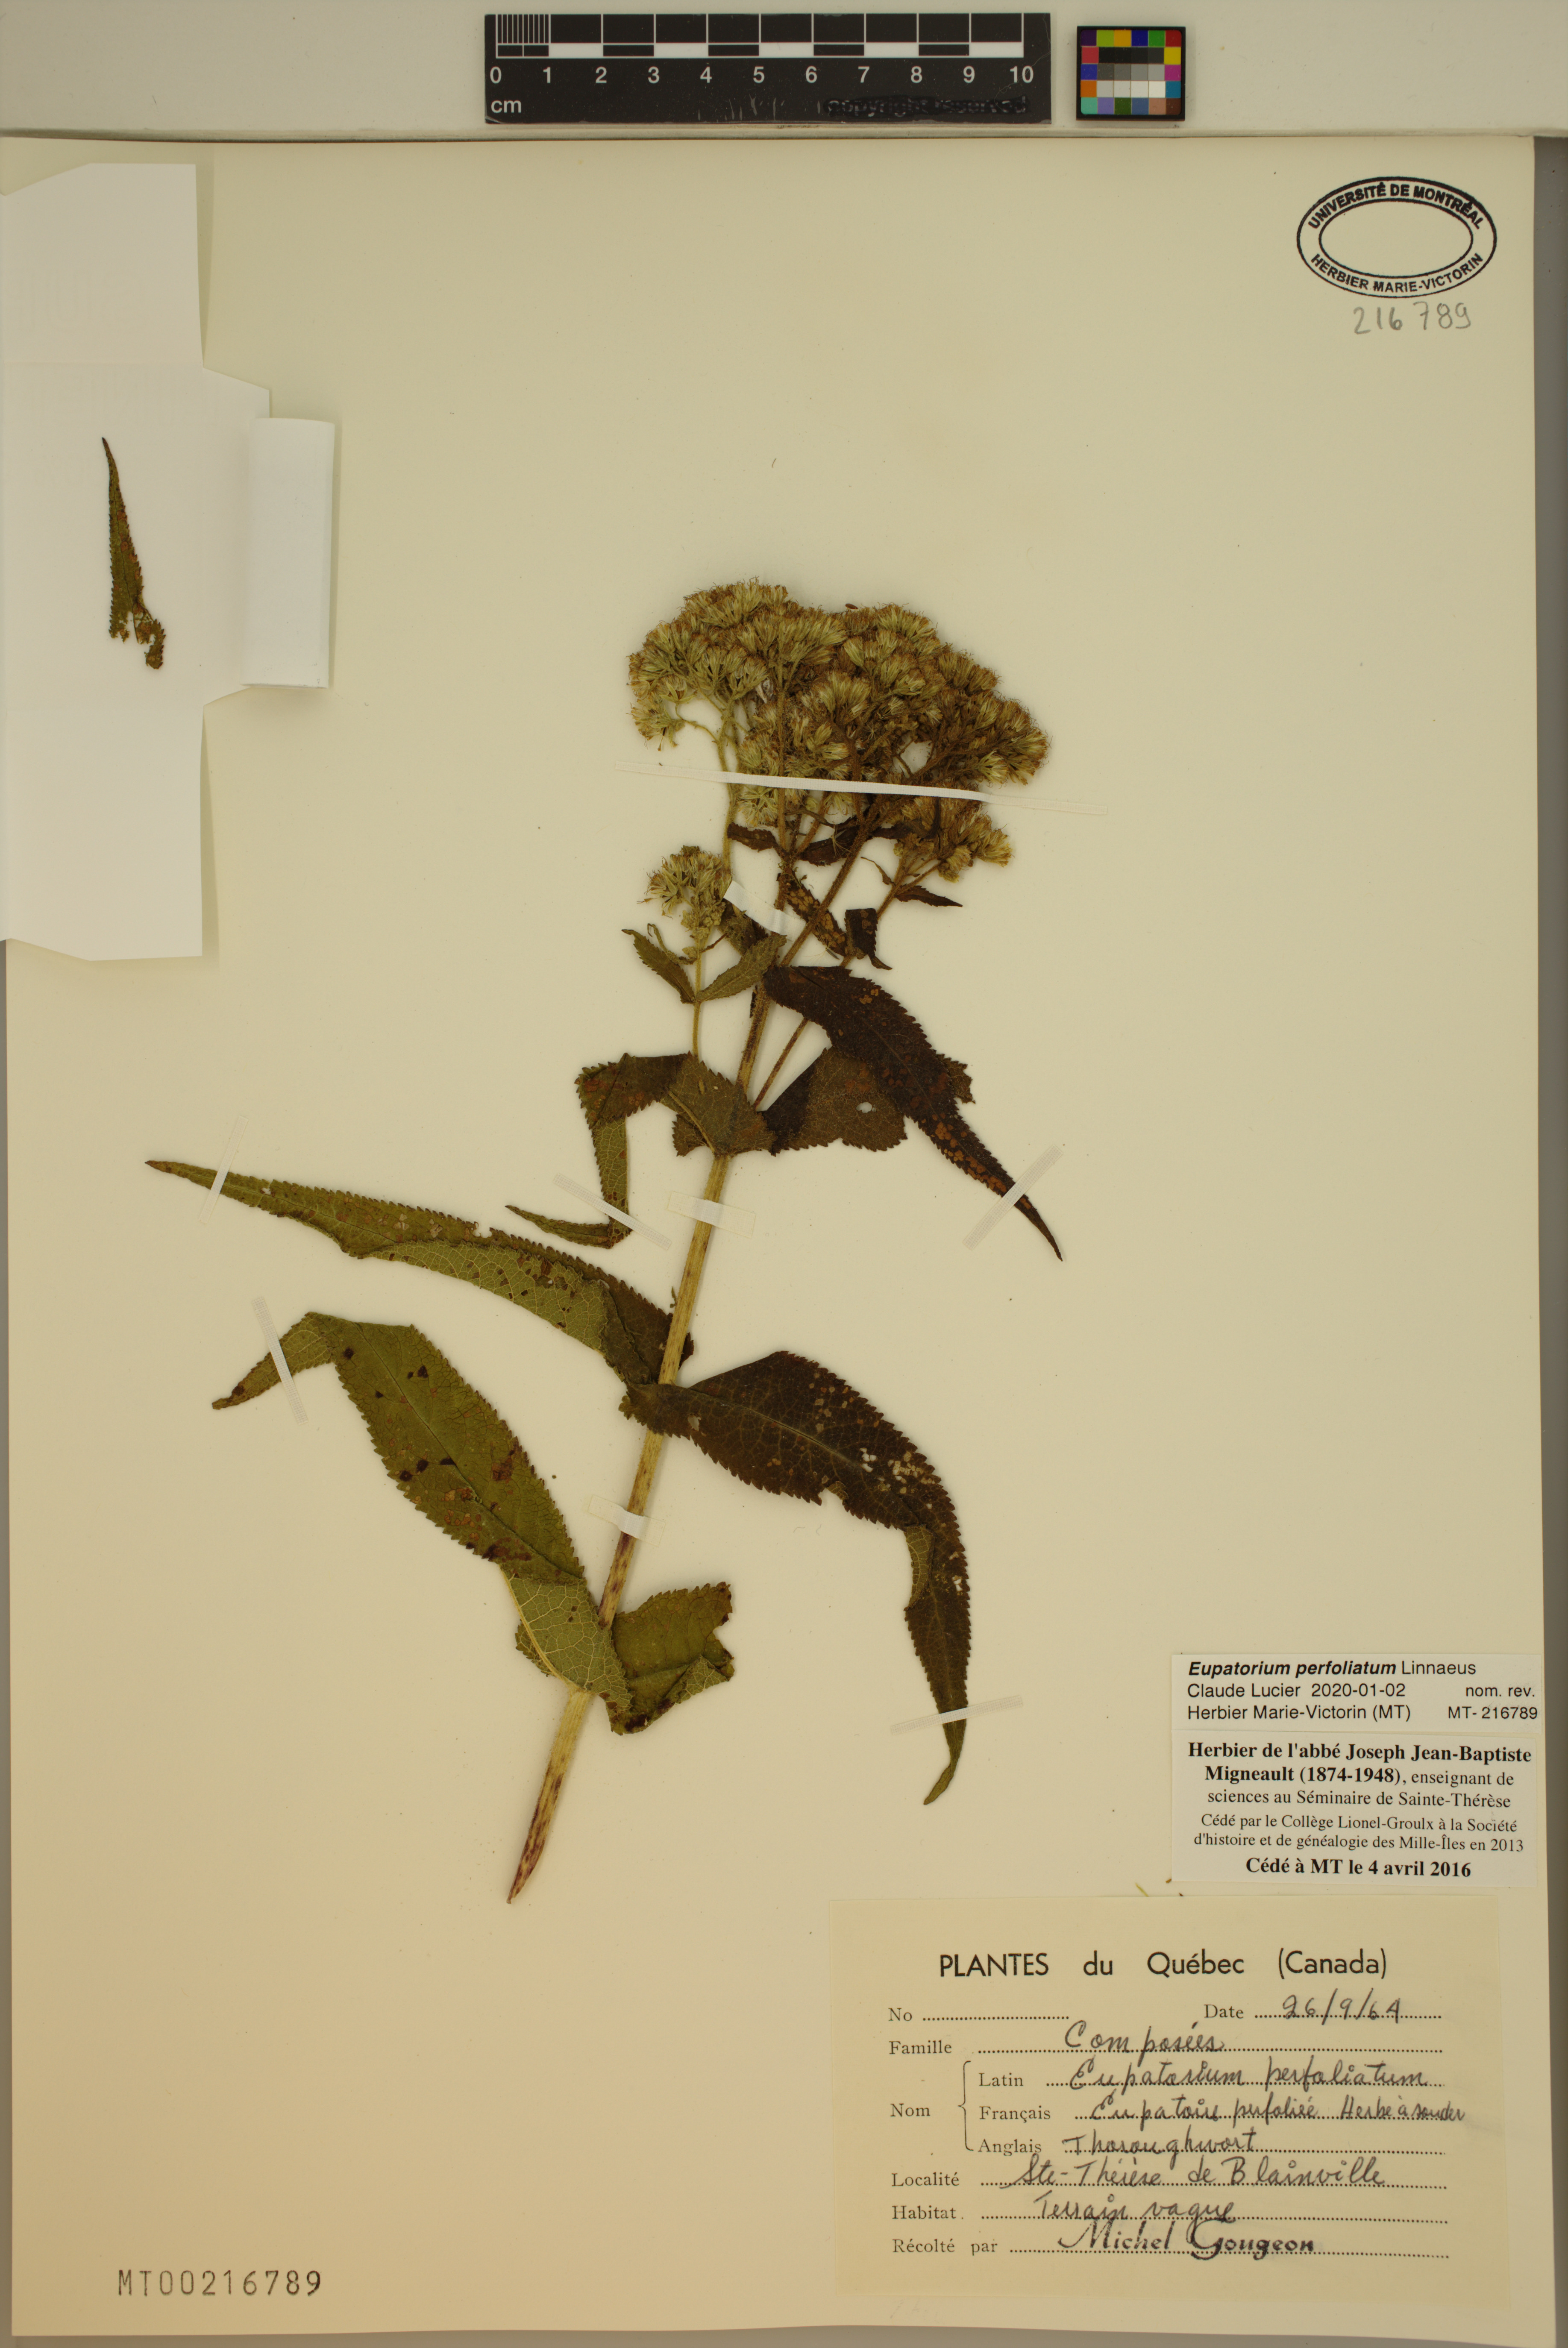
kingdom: Plantae
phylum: Tracheophyta
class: Magnoliopsida
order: Asterales
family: Asteraceae
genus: Eupatorium
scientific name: Eupatorium perfoliatum
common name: Boneset
